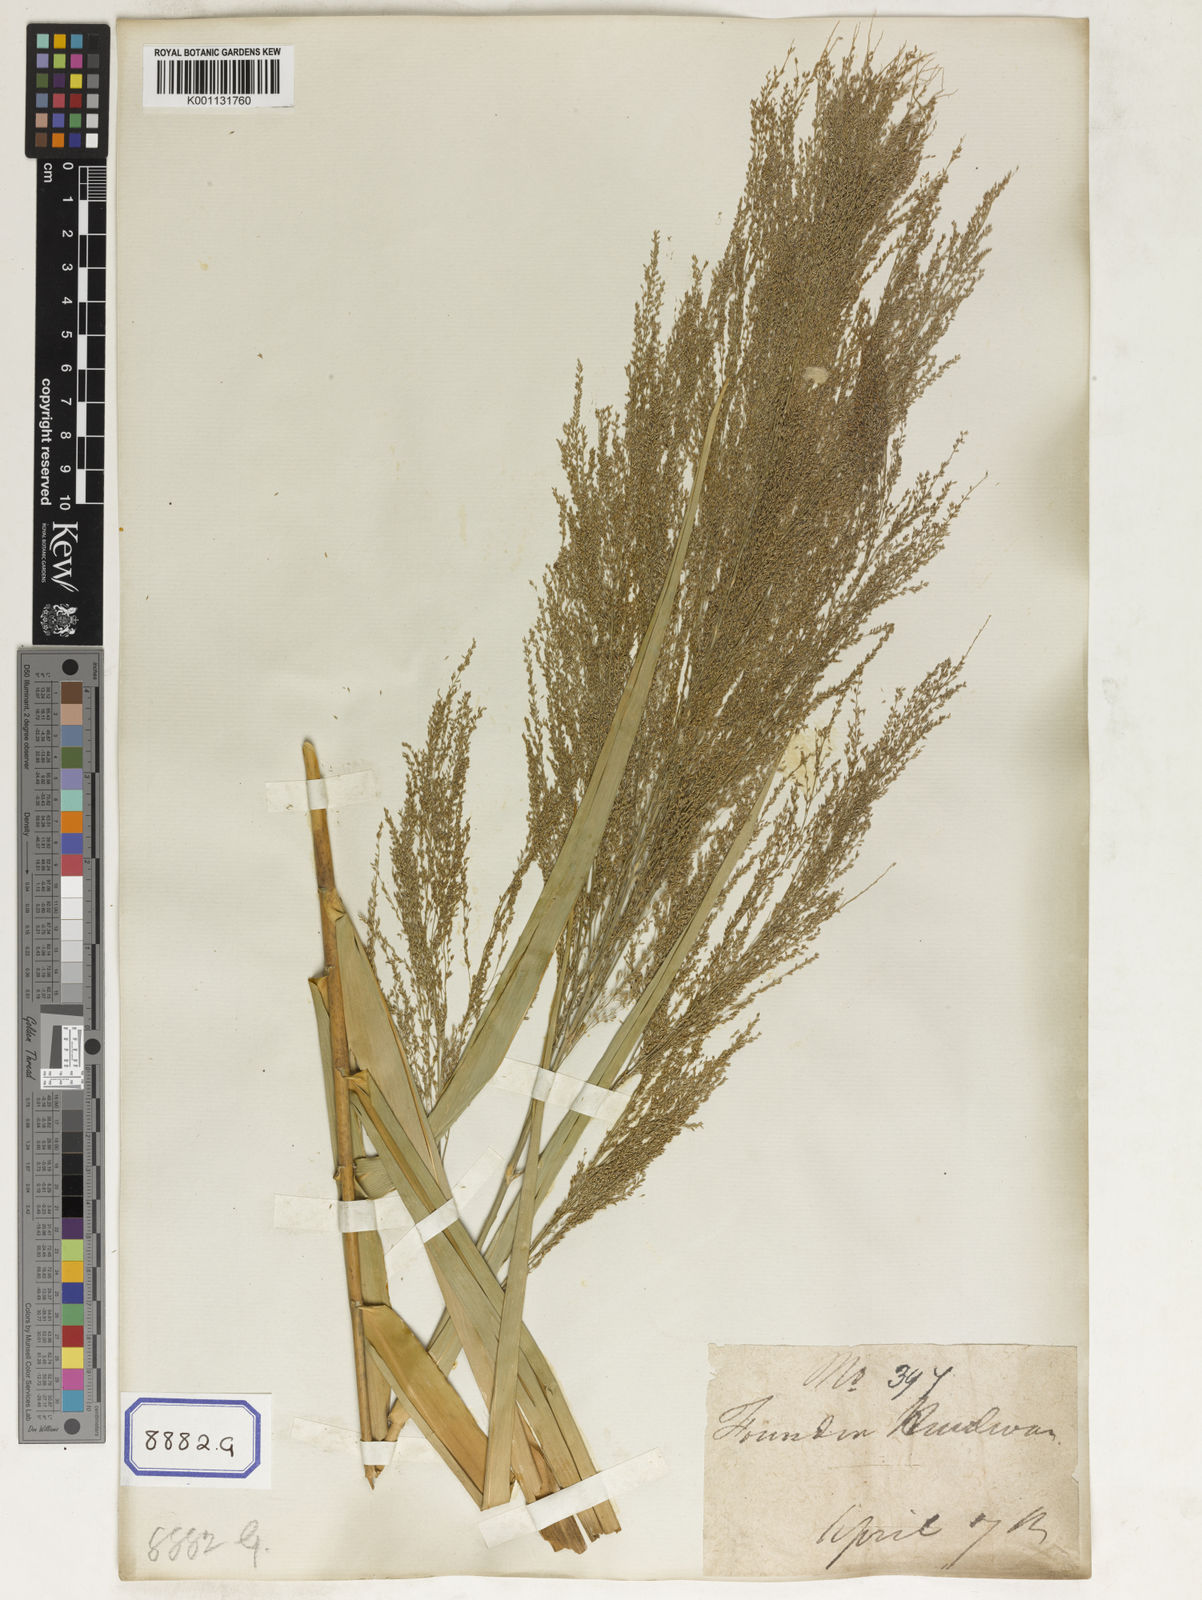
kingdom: Plantae
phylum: Tracheophyta
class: Liliopsida
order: Poales
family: Poaceae
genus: Thysanolaena
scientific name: Thysanolaena latifolia
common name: Tiger grass
